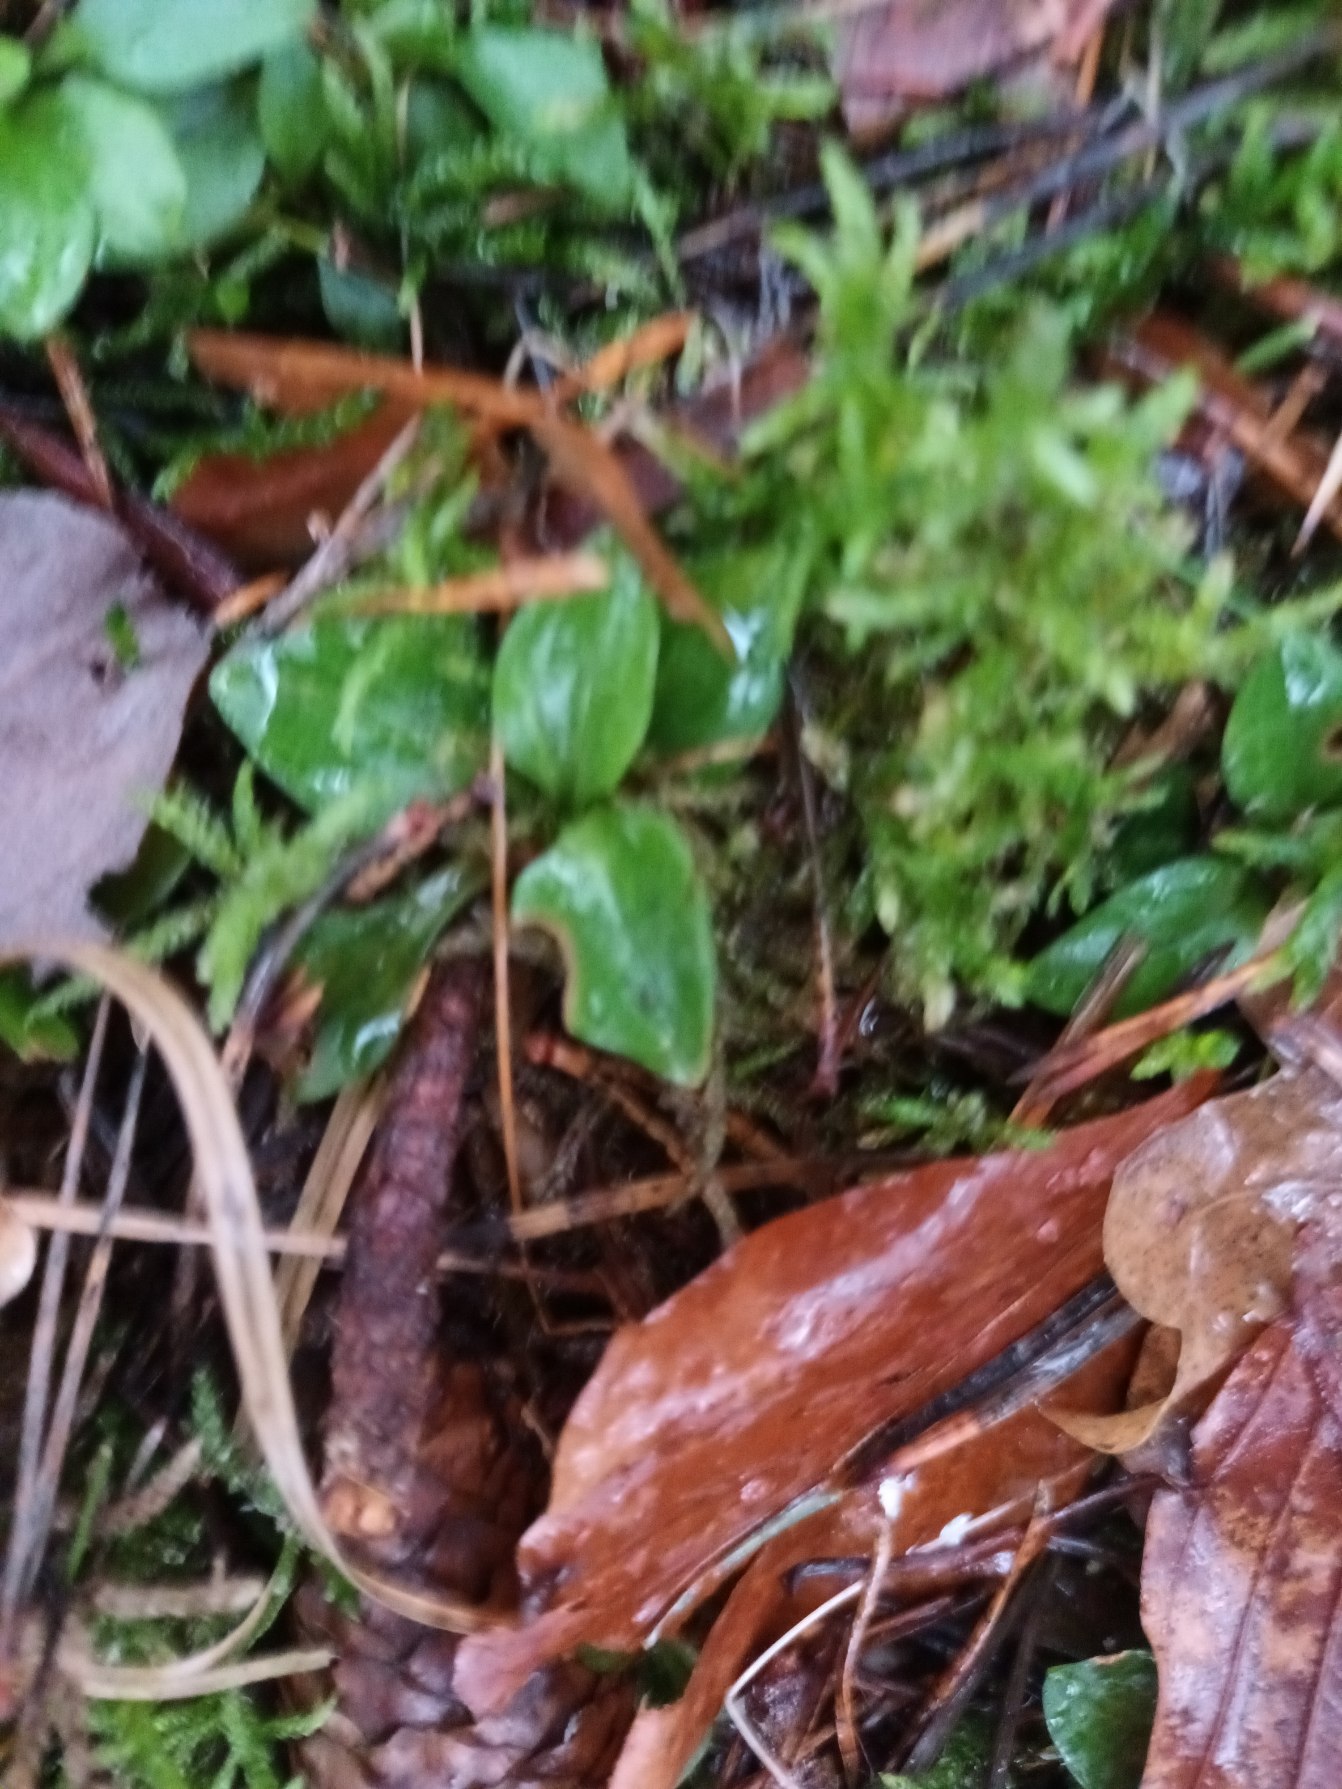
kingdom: Plantae
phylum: Tracheophyta
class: Liliopsida
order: Asparagales
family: Orchidaceae
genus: Goodyera
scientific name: Goodyera repens
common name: Knærod
